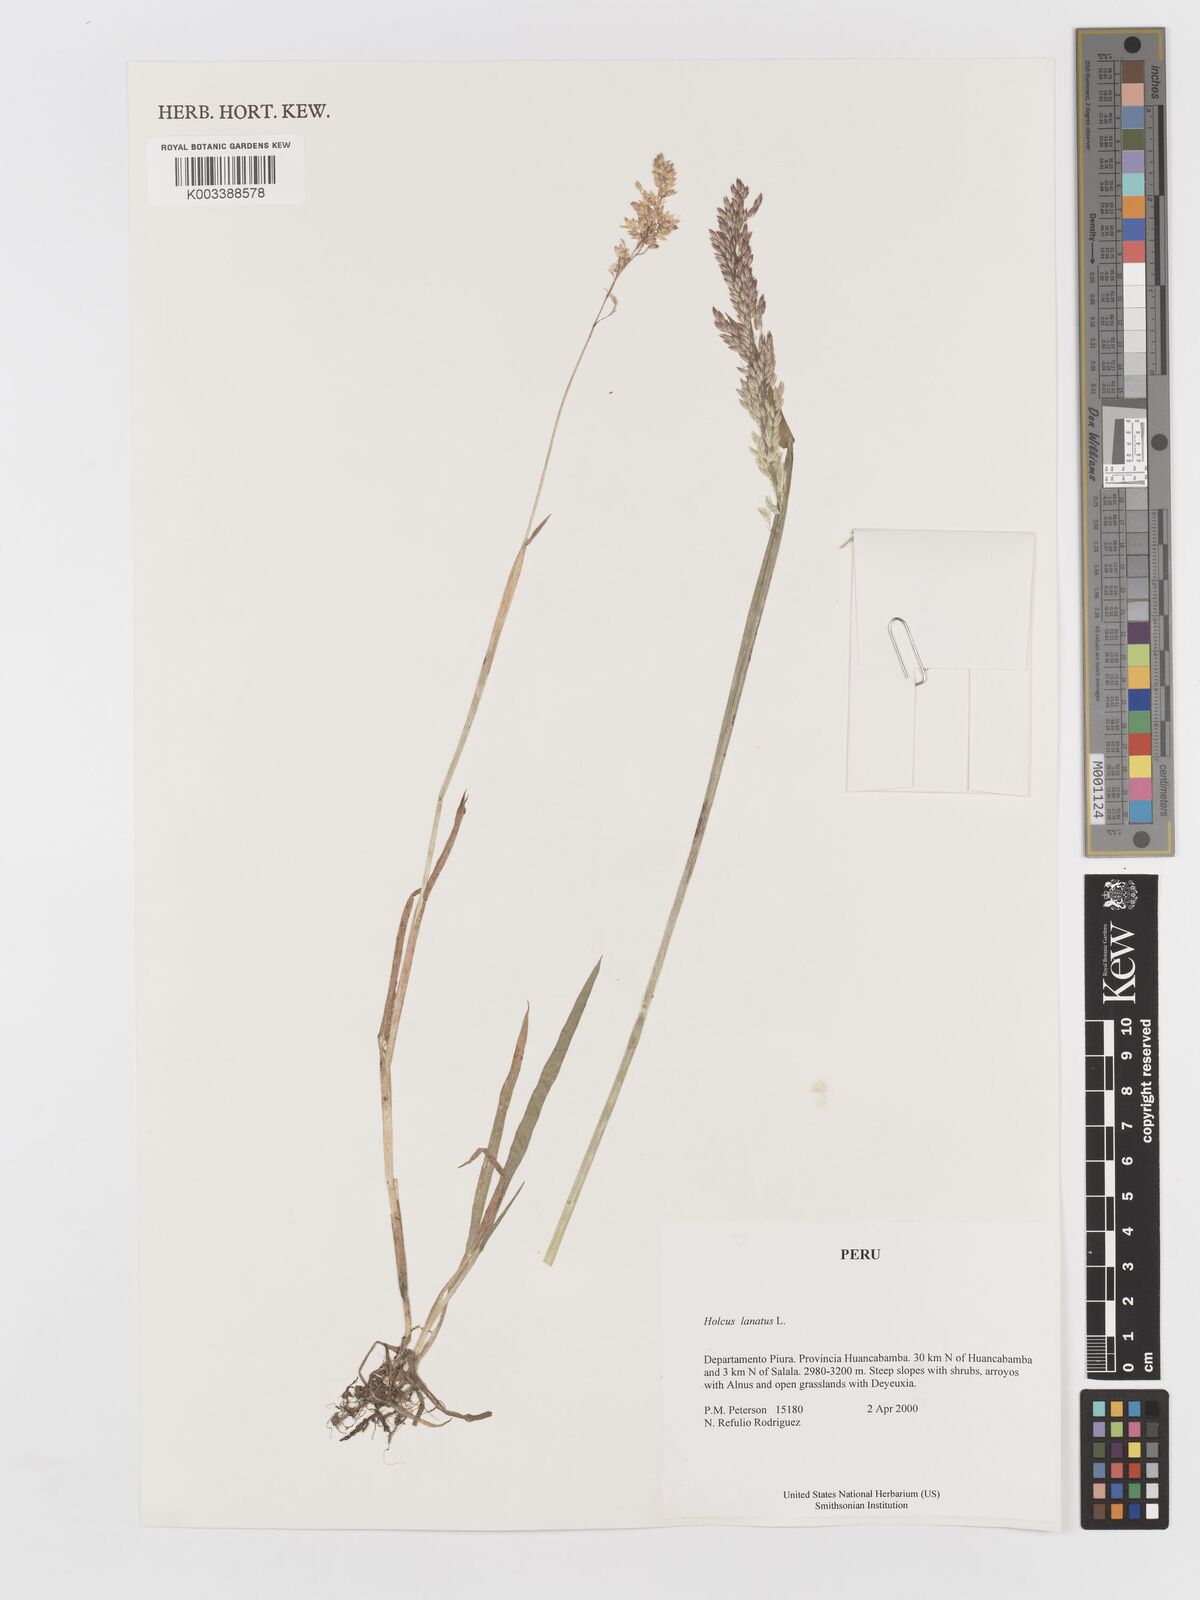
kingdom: Plantae
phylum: Tracheophyta
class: Liliopsida
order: Poales
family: Poaceae
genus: Holcus
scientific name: Holcus lanatus
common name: Yorkshire-fog
